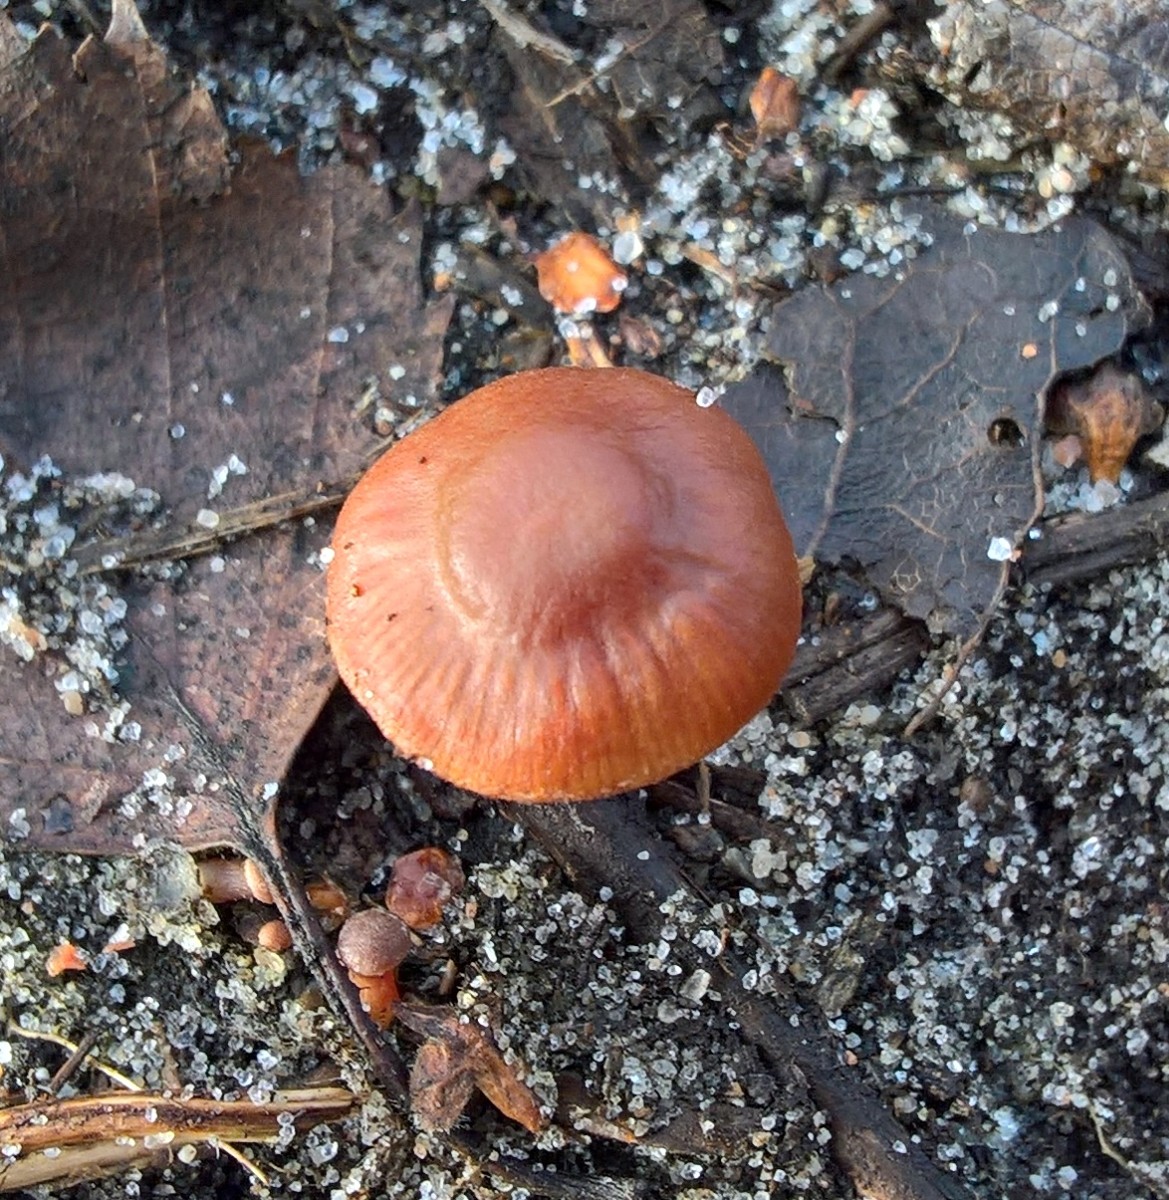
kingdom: Fungi
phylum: Basidiomycota
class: Agaricomycetes
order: Agaricales
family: Tubariaceae
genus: Tubaria
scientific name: Tubaria furfuracea
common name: kliddet fnughat
